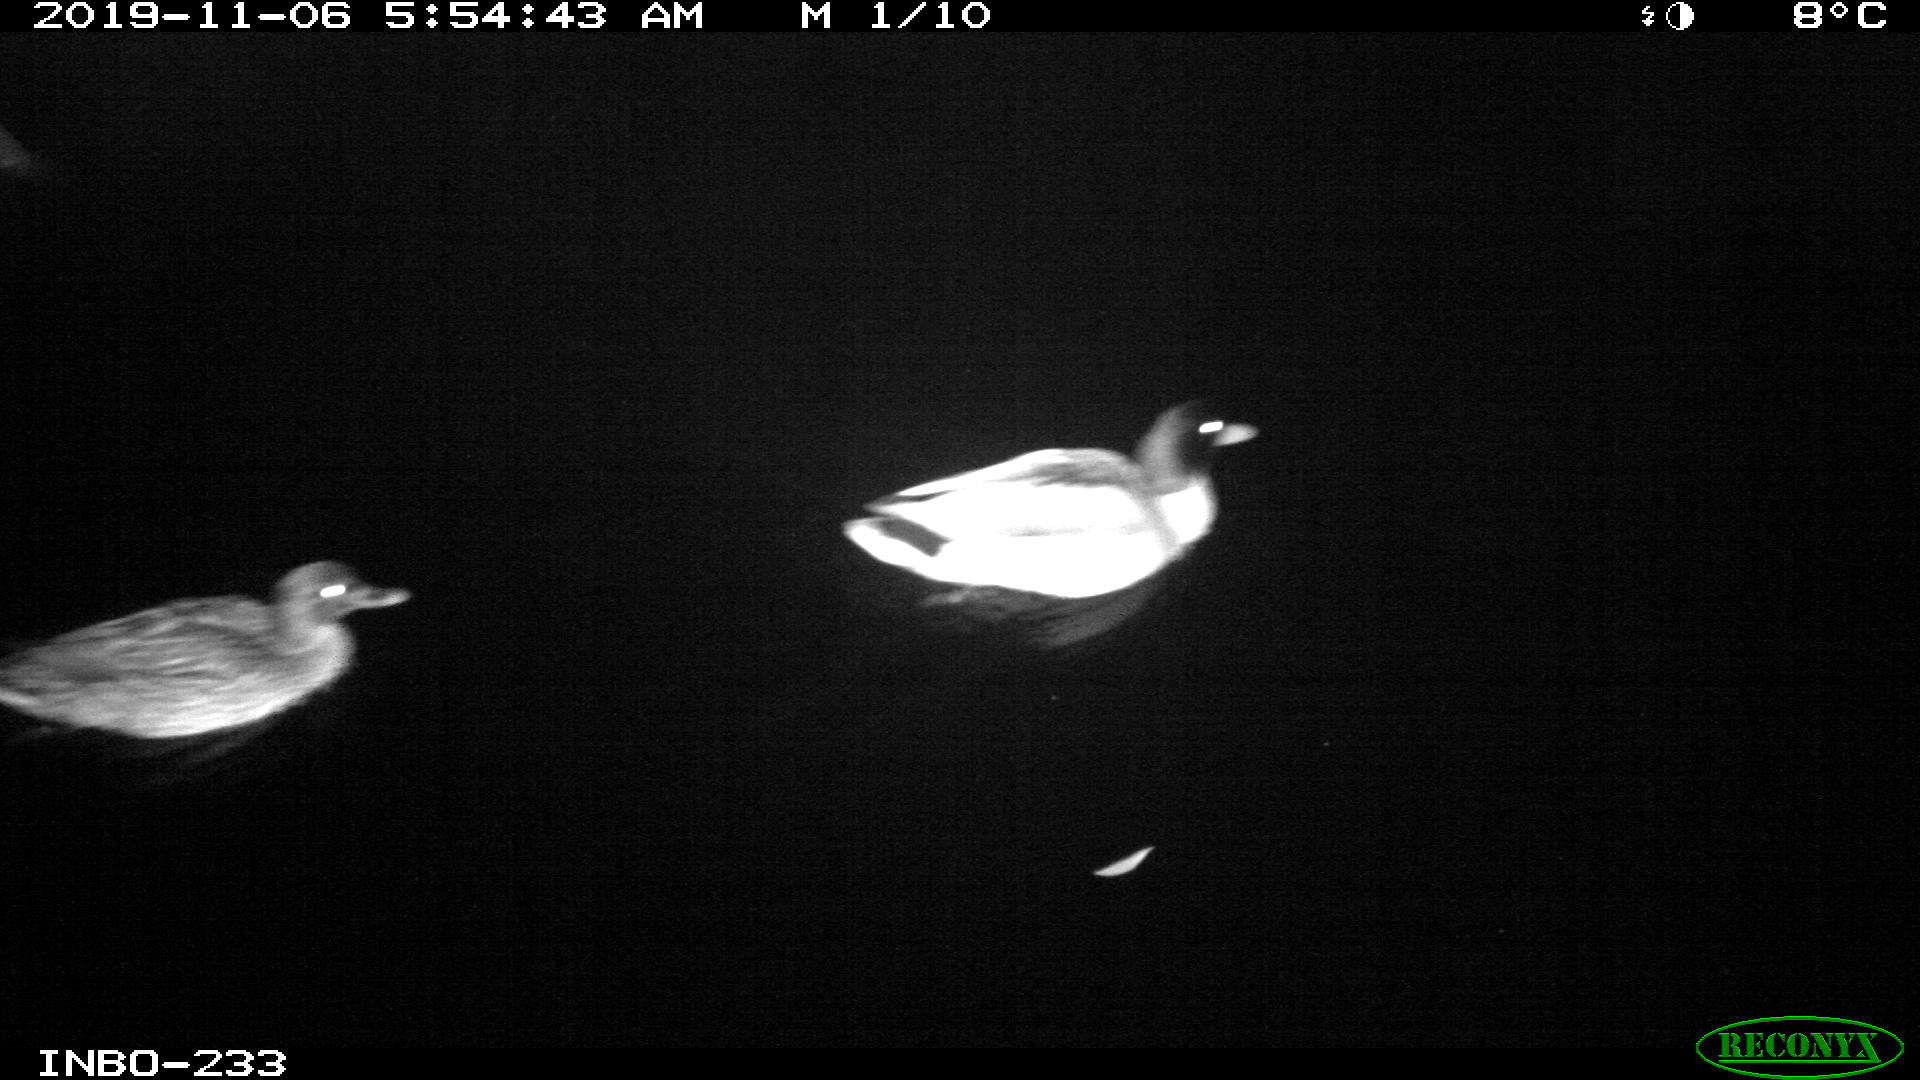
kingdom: Animalia
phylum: Chordata
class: Aves
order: Anseriformes
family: Anatidae
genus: Anas
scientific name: Anas platyrhynchos
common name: Mallard
